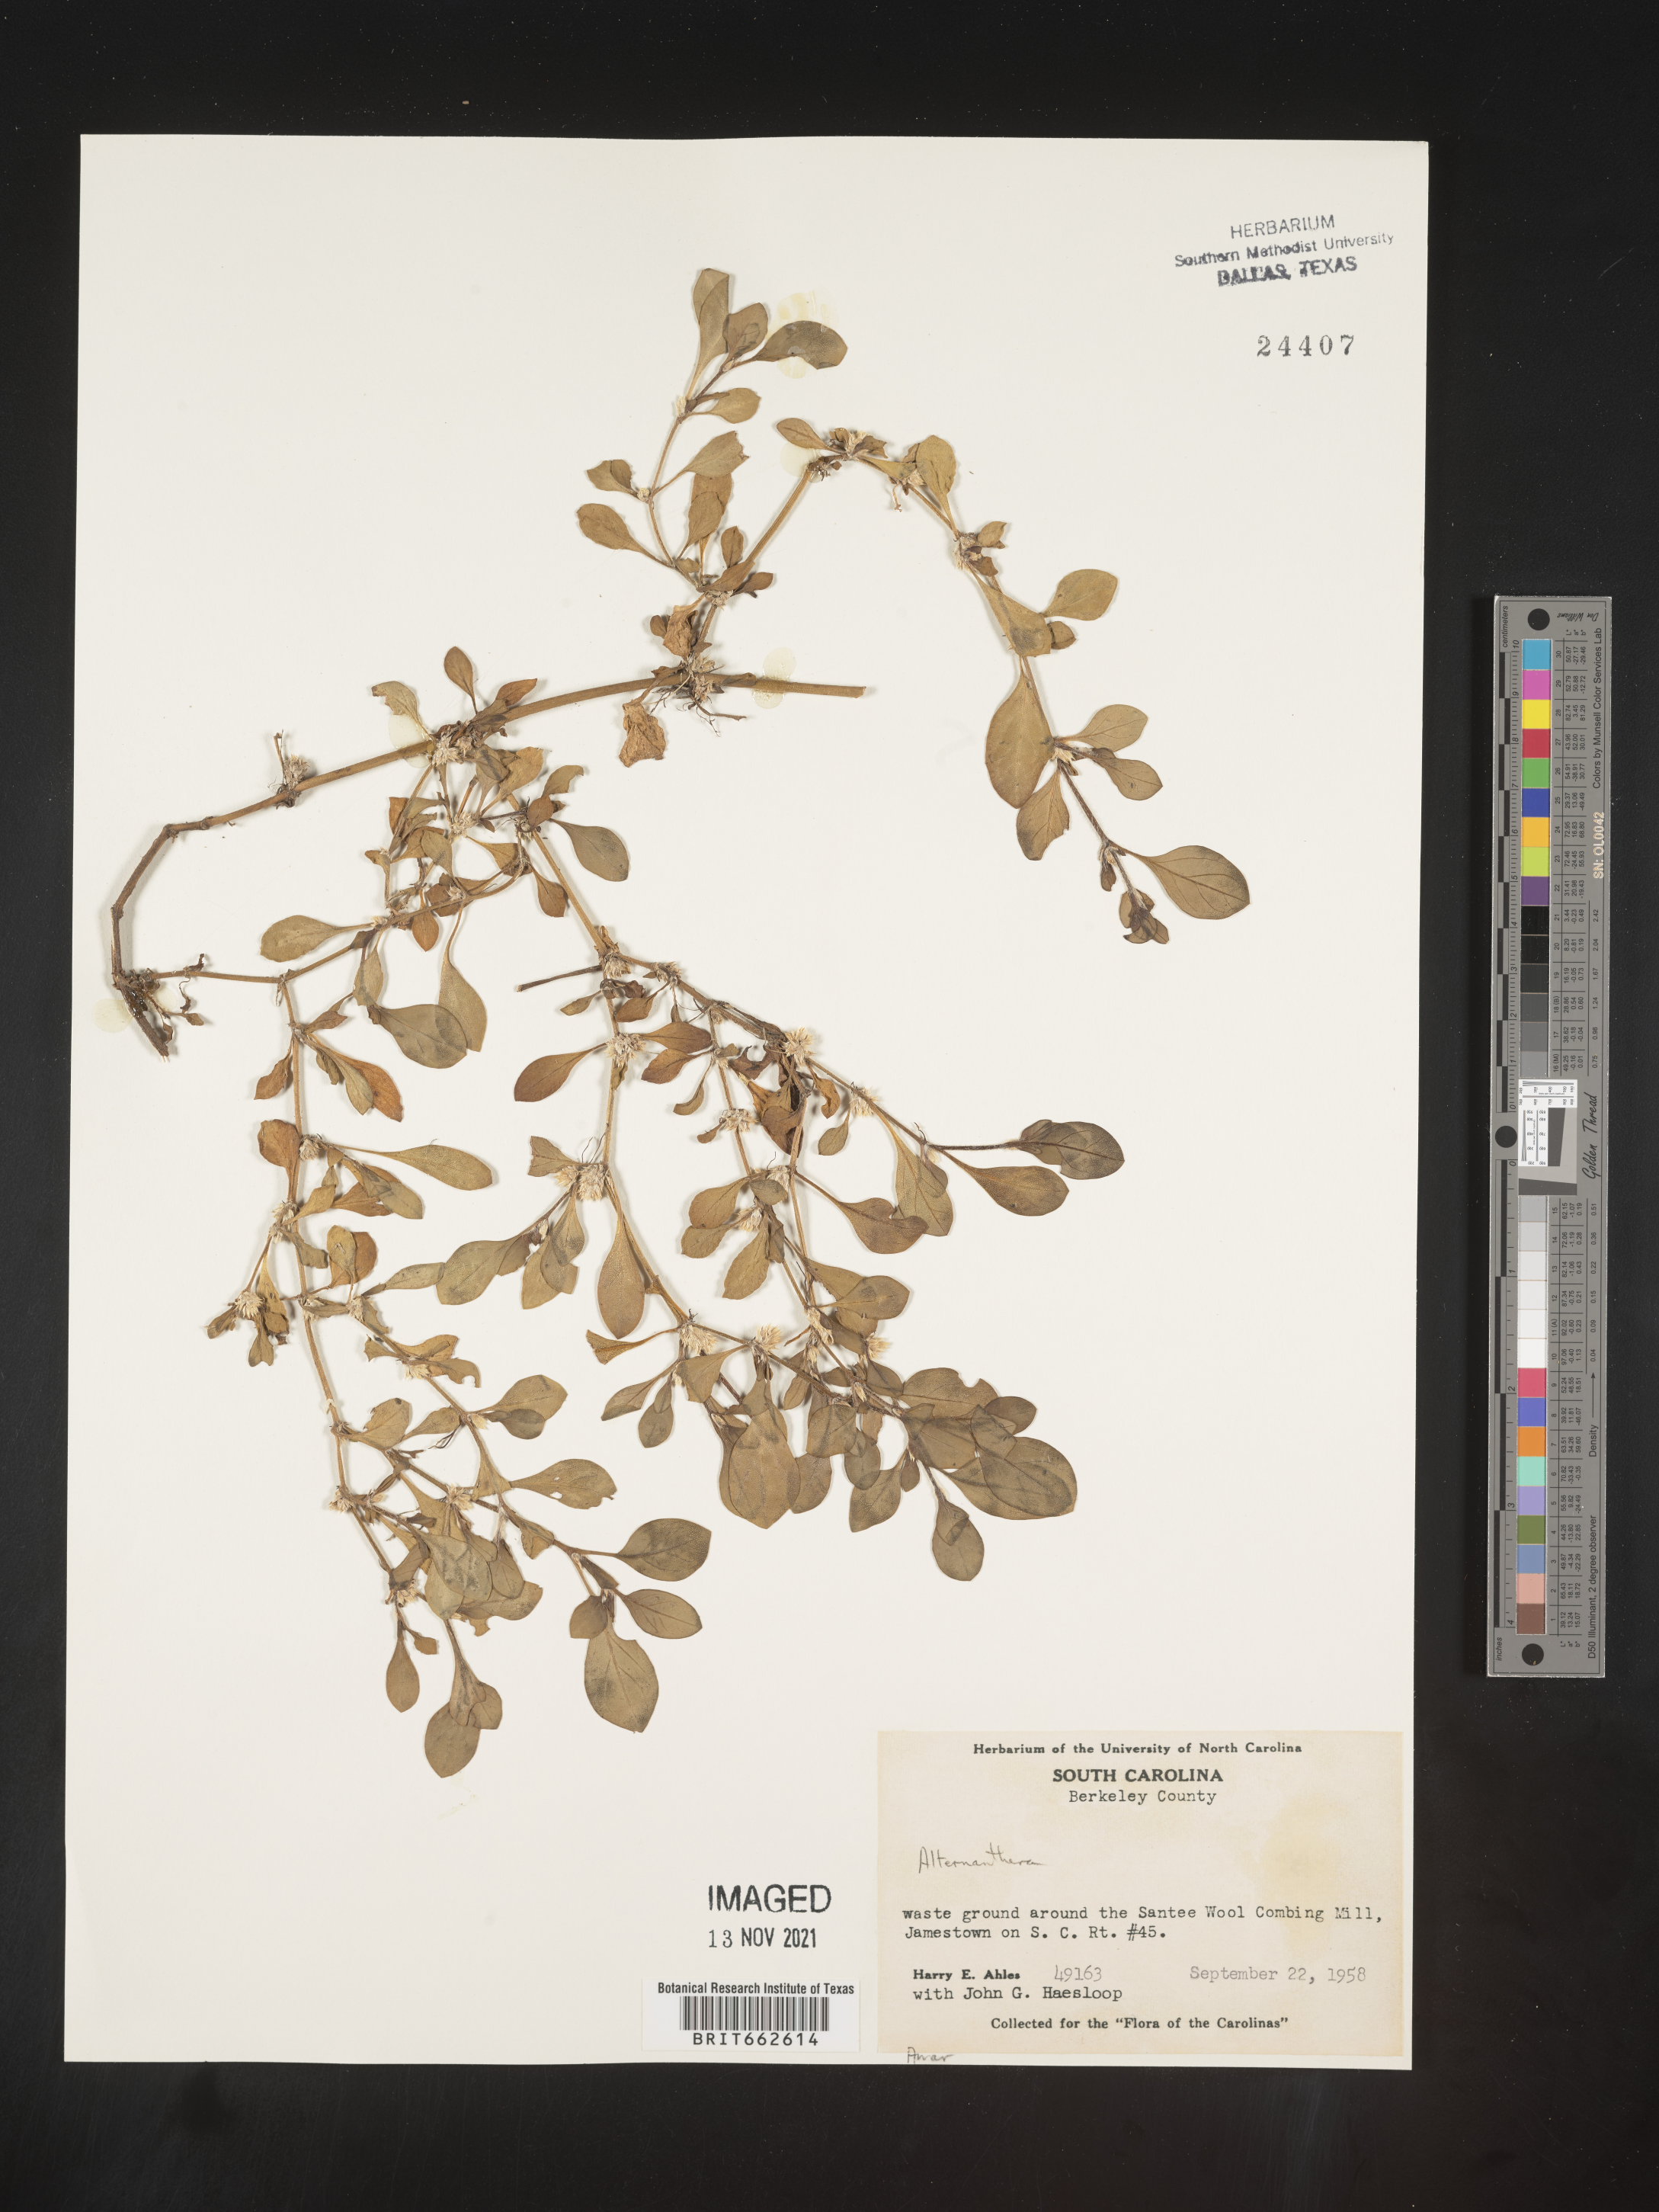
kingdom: Plantae
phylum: Tracheophyta
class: Magnoliopsida
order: Caryophyllales
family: Amaranthaceae
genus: Alternanthera
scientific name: Alternanthera
